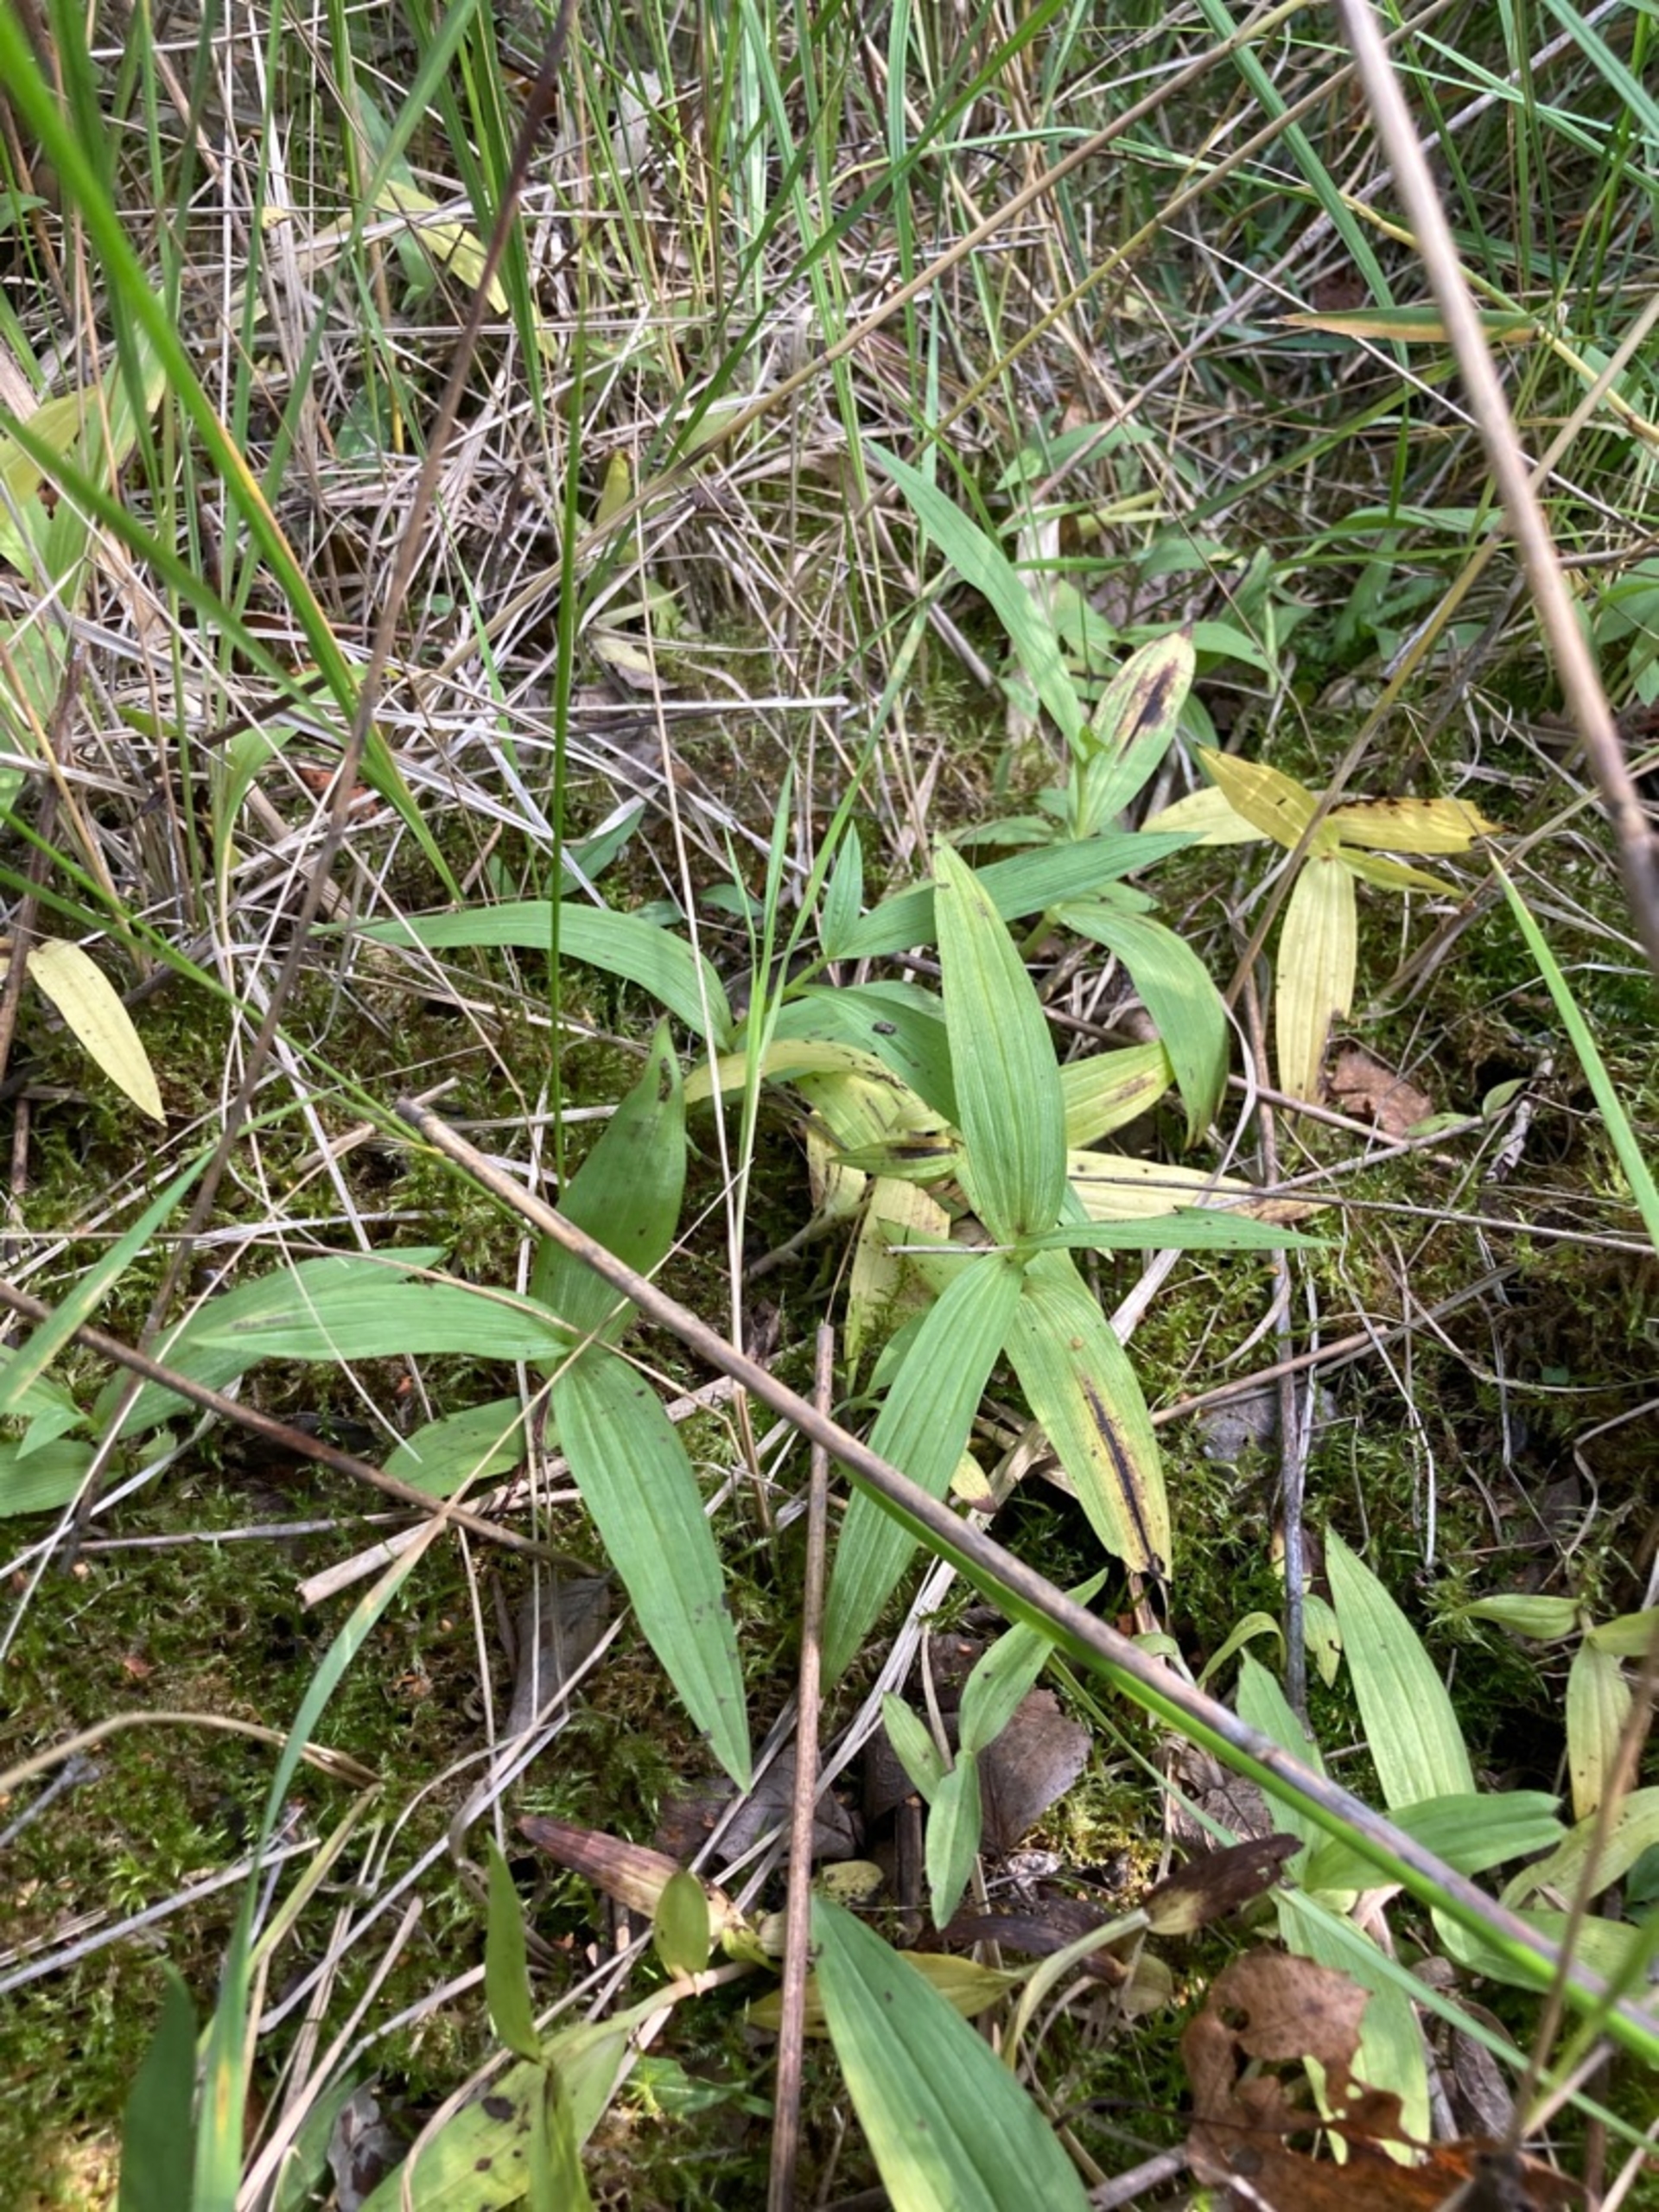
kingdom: Plantae
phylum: Tracheophyta
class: Liliopsida
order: Asparagales
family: Orchidaceae
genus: Epipactis
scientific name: Epipactis palustris
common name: Sump-hullæbe
